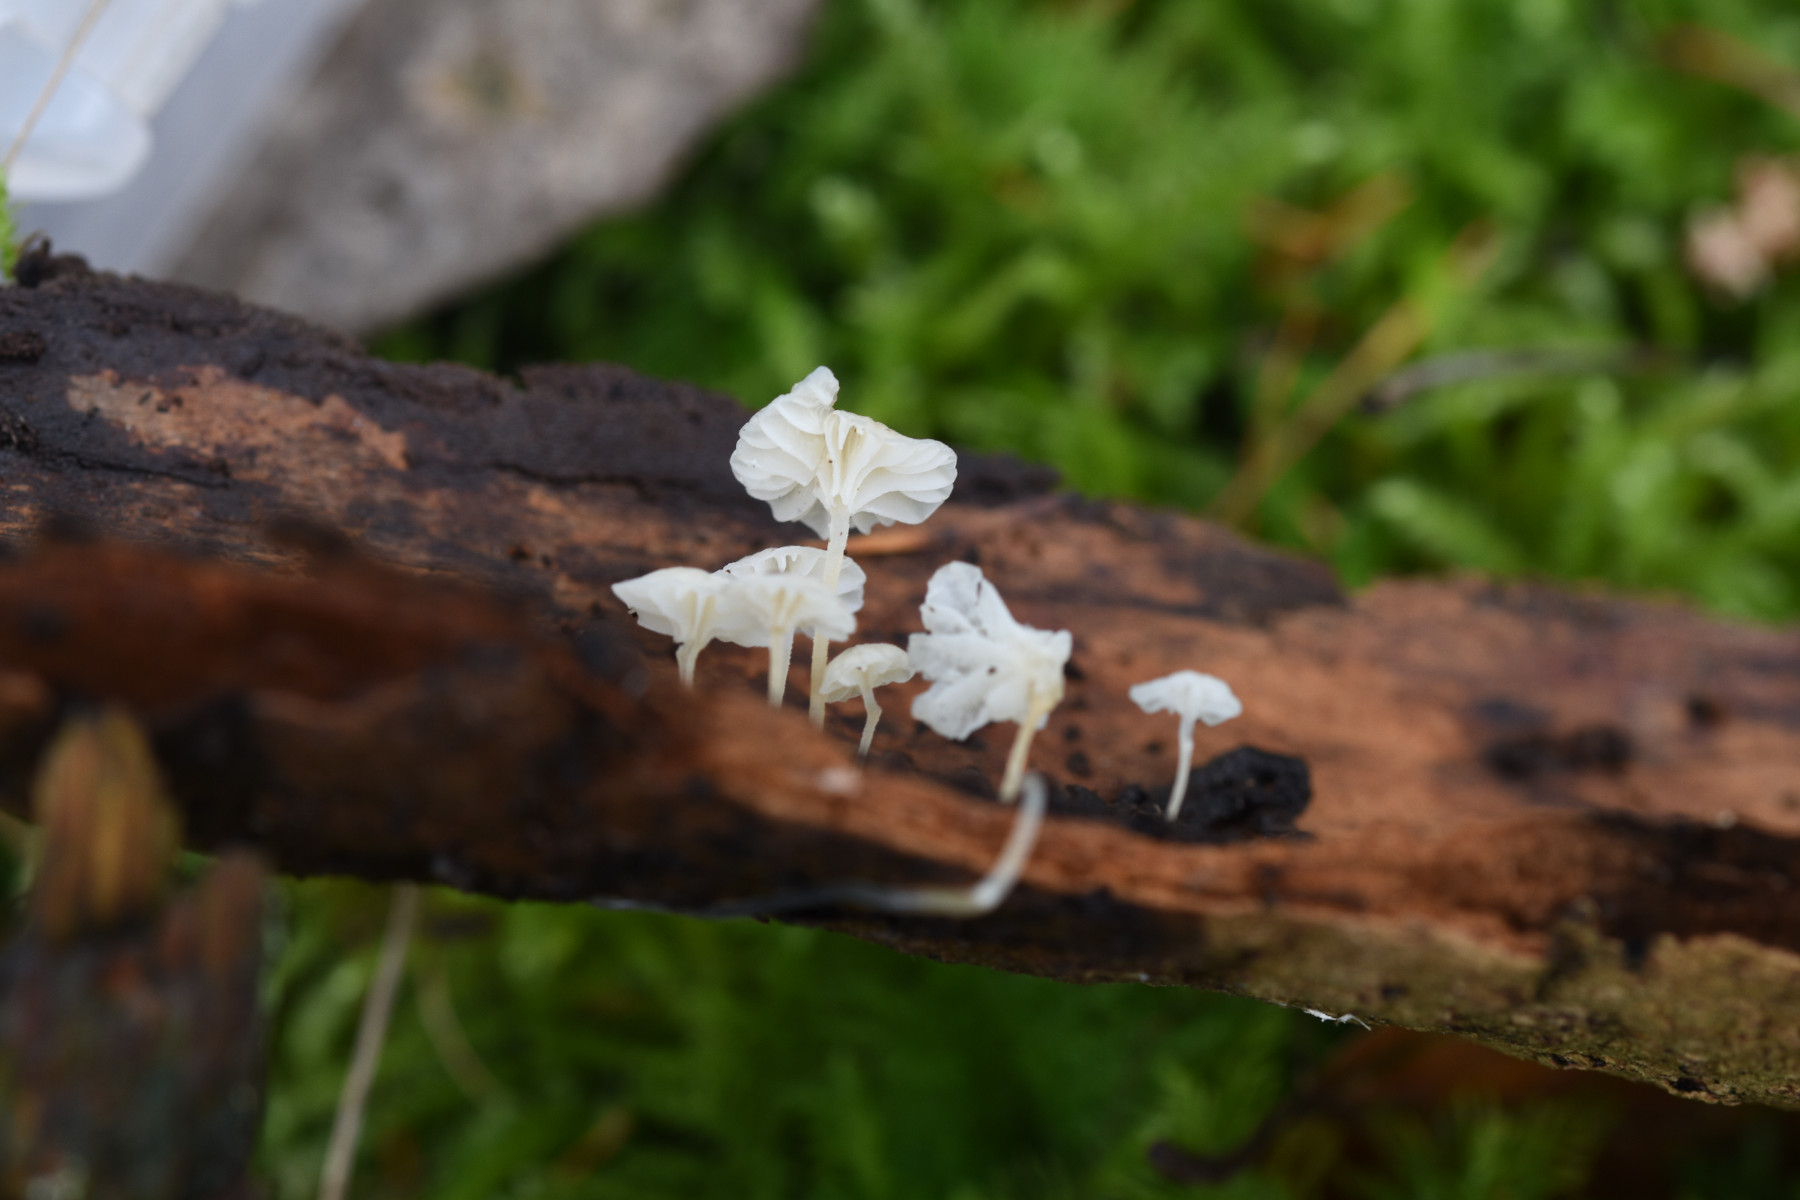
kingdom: Fungi
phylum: Basidiomycota
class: Agaricomycetes
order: Agaricales
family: Porotheleaceae
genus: Phloeomana
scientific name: Phloeomana speirea
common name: kvist-huesvamp
